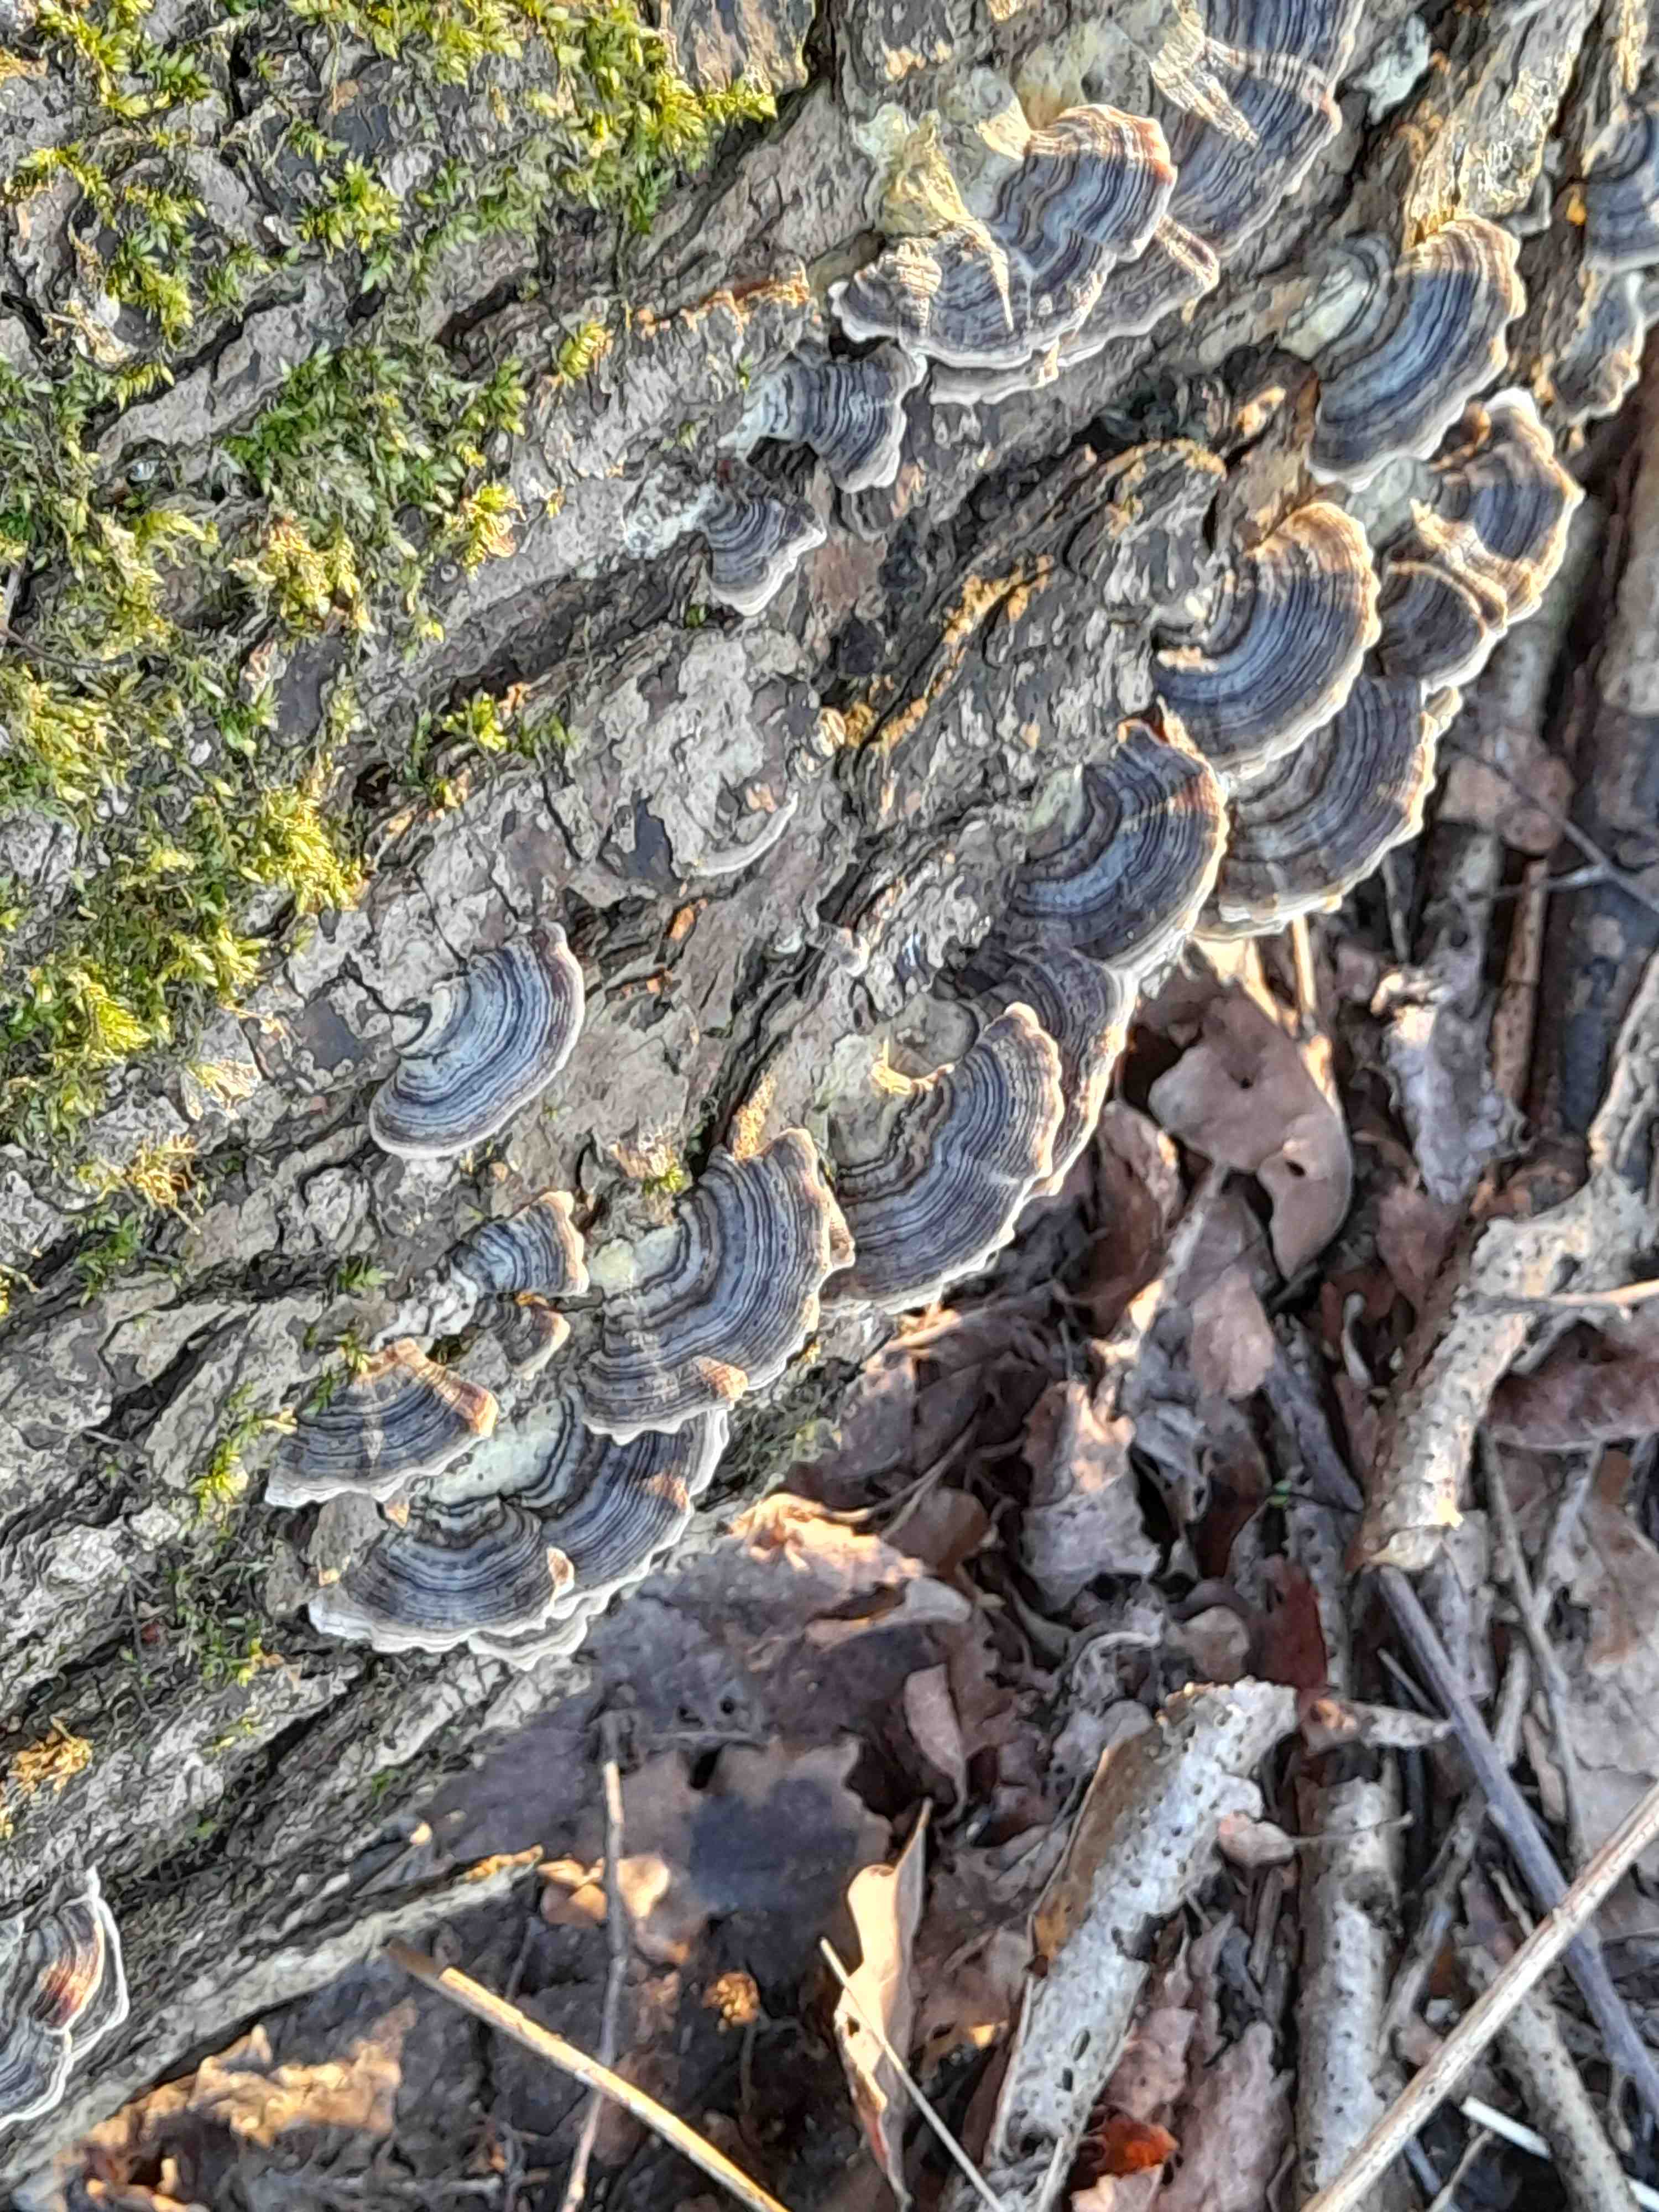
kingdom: Fungi
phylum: Basidiomycota
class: Agaricomycetes
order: Polyporales
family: Polyporaceae
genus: Trametes
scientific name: Trametes versicolor
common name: broget læderporesvamp
